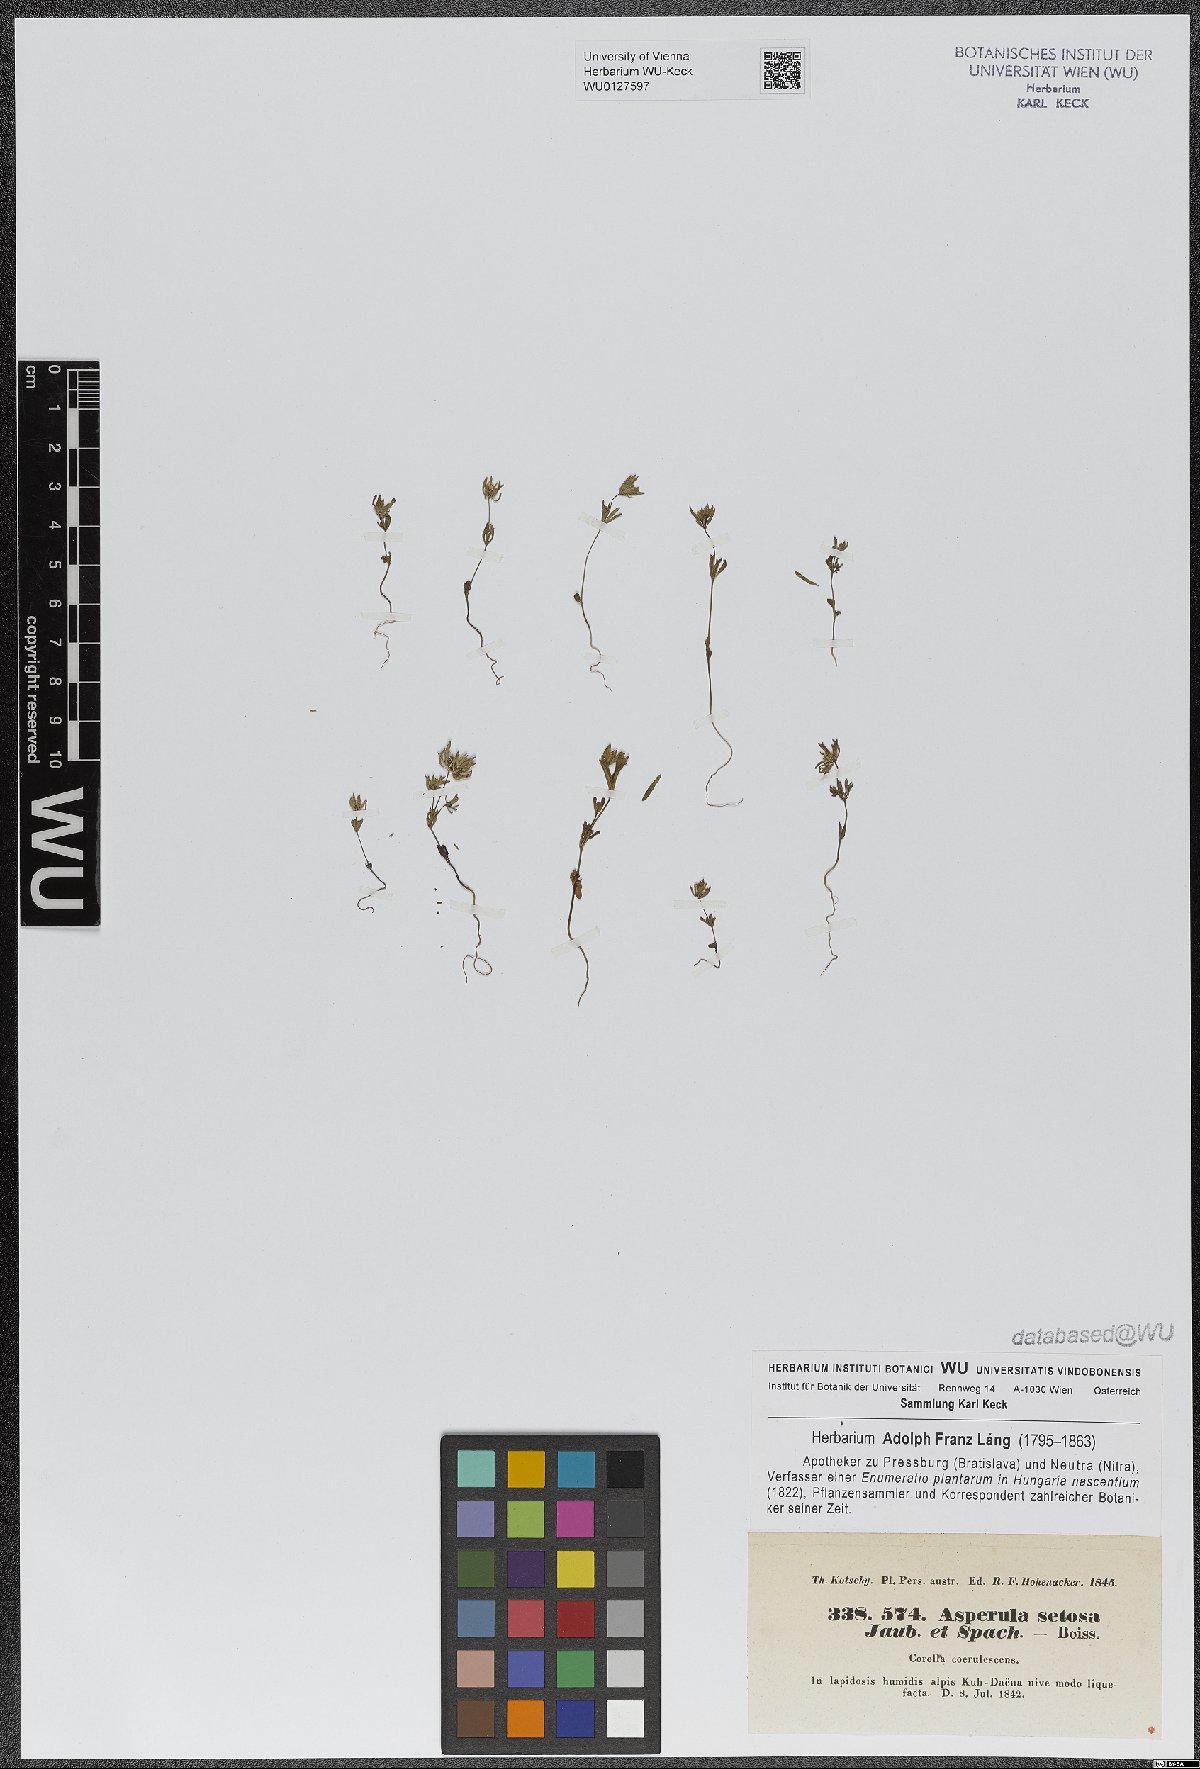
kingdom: Plantae
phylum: Tracheophyta
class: Magnoliopsida
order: Gentianales
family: Rubiaceae
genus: Asperula
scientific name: Asperula setosa
